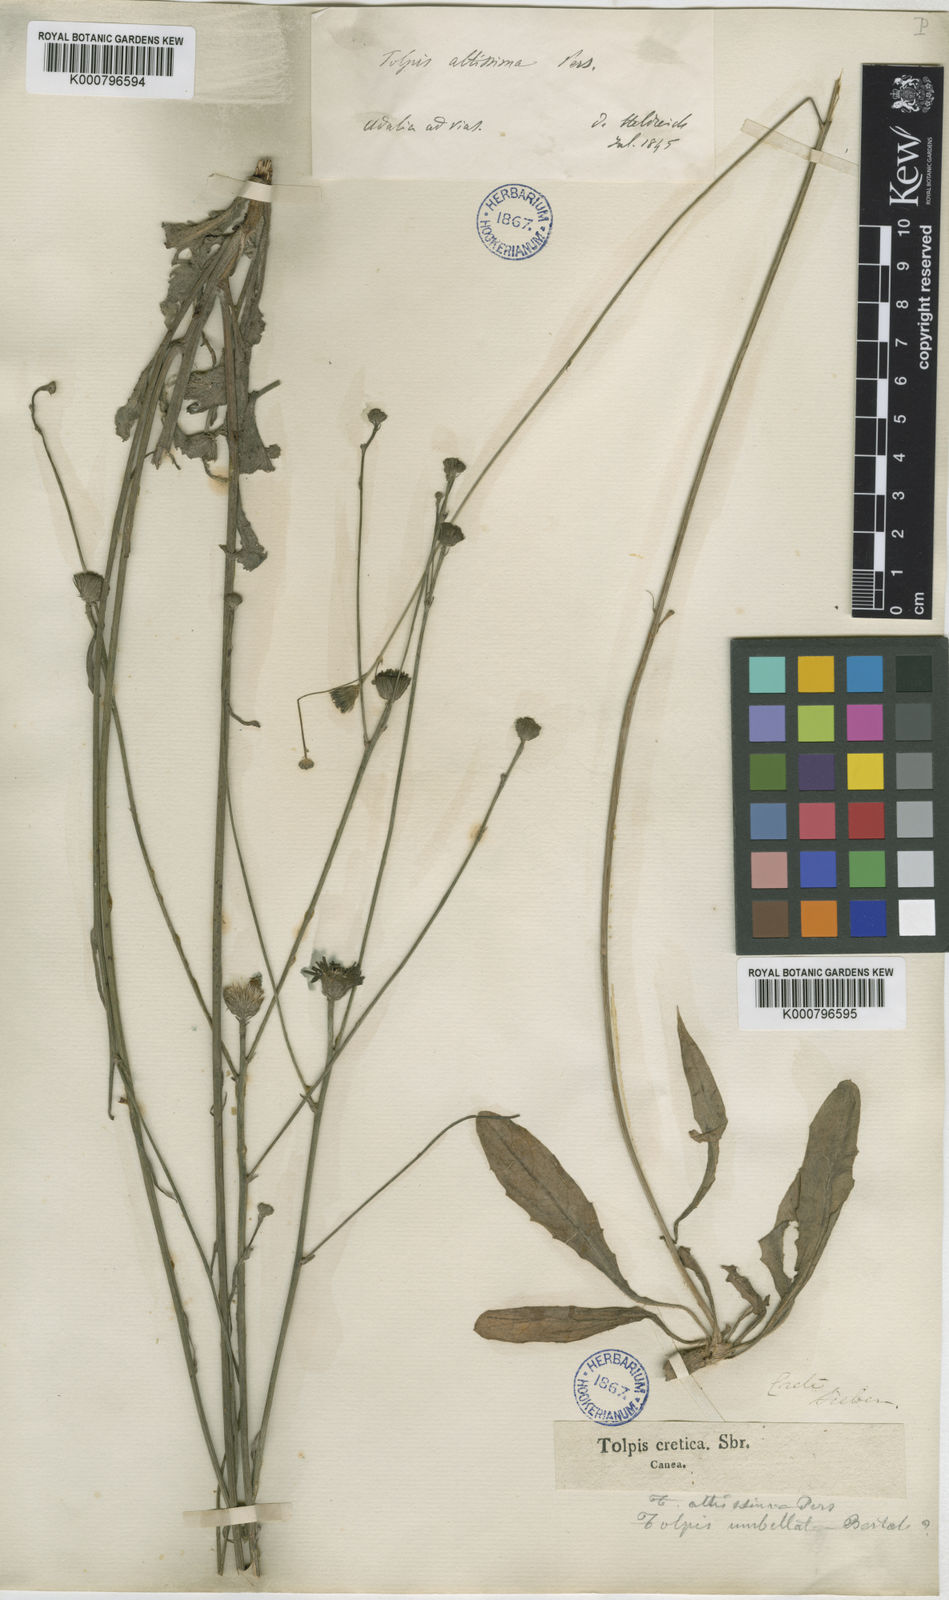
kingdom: Plantae
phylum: Tracheophyta
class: Magnoliopsida
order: Asterales
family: Asteraceae
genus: Tolpis
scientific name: Tolpis virgata
